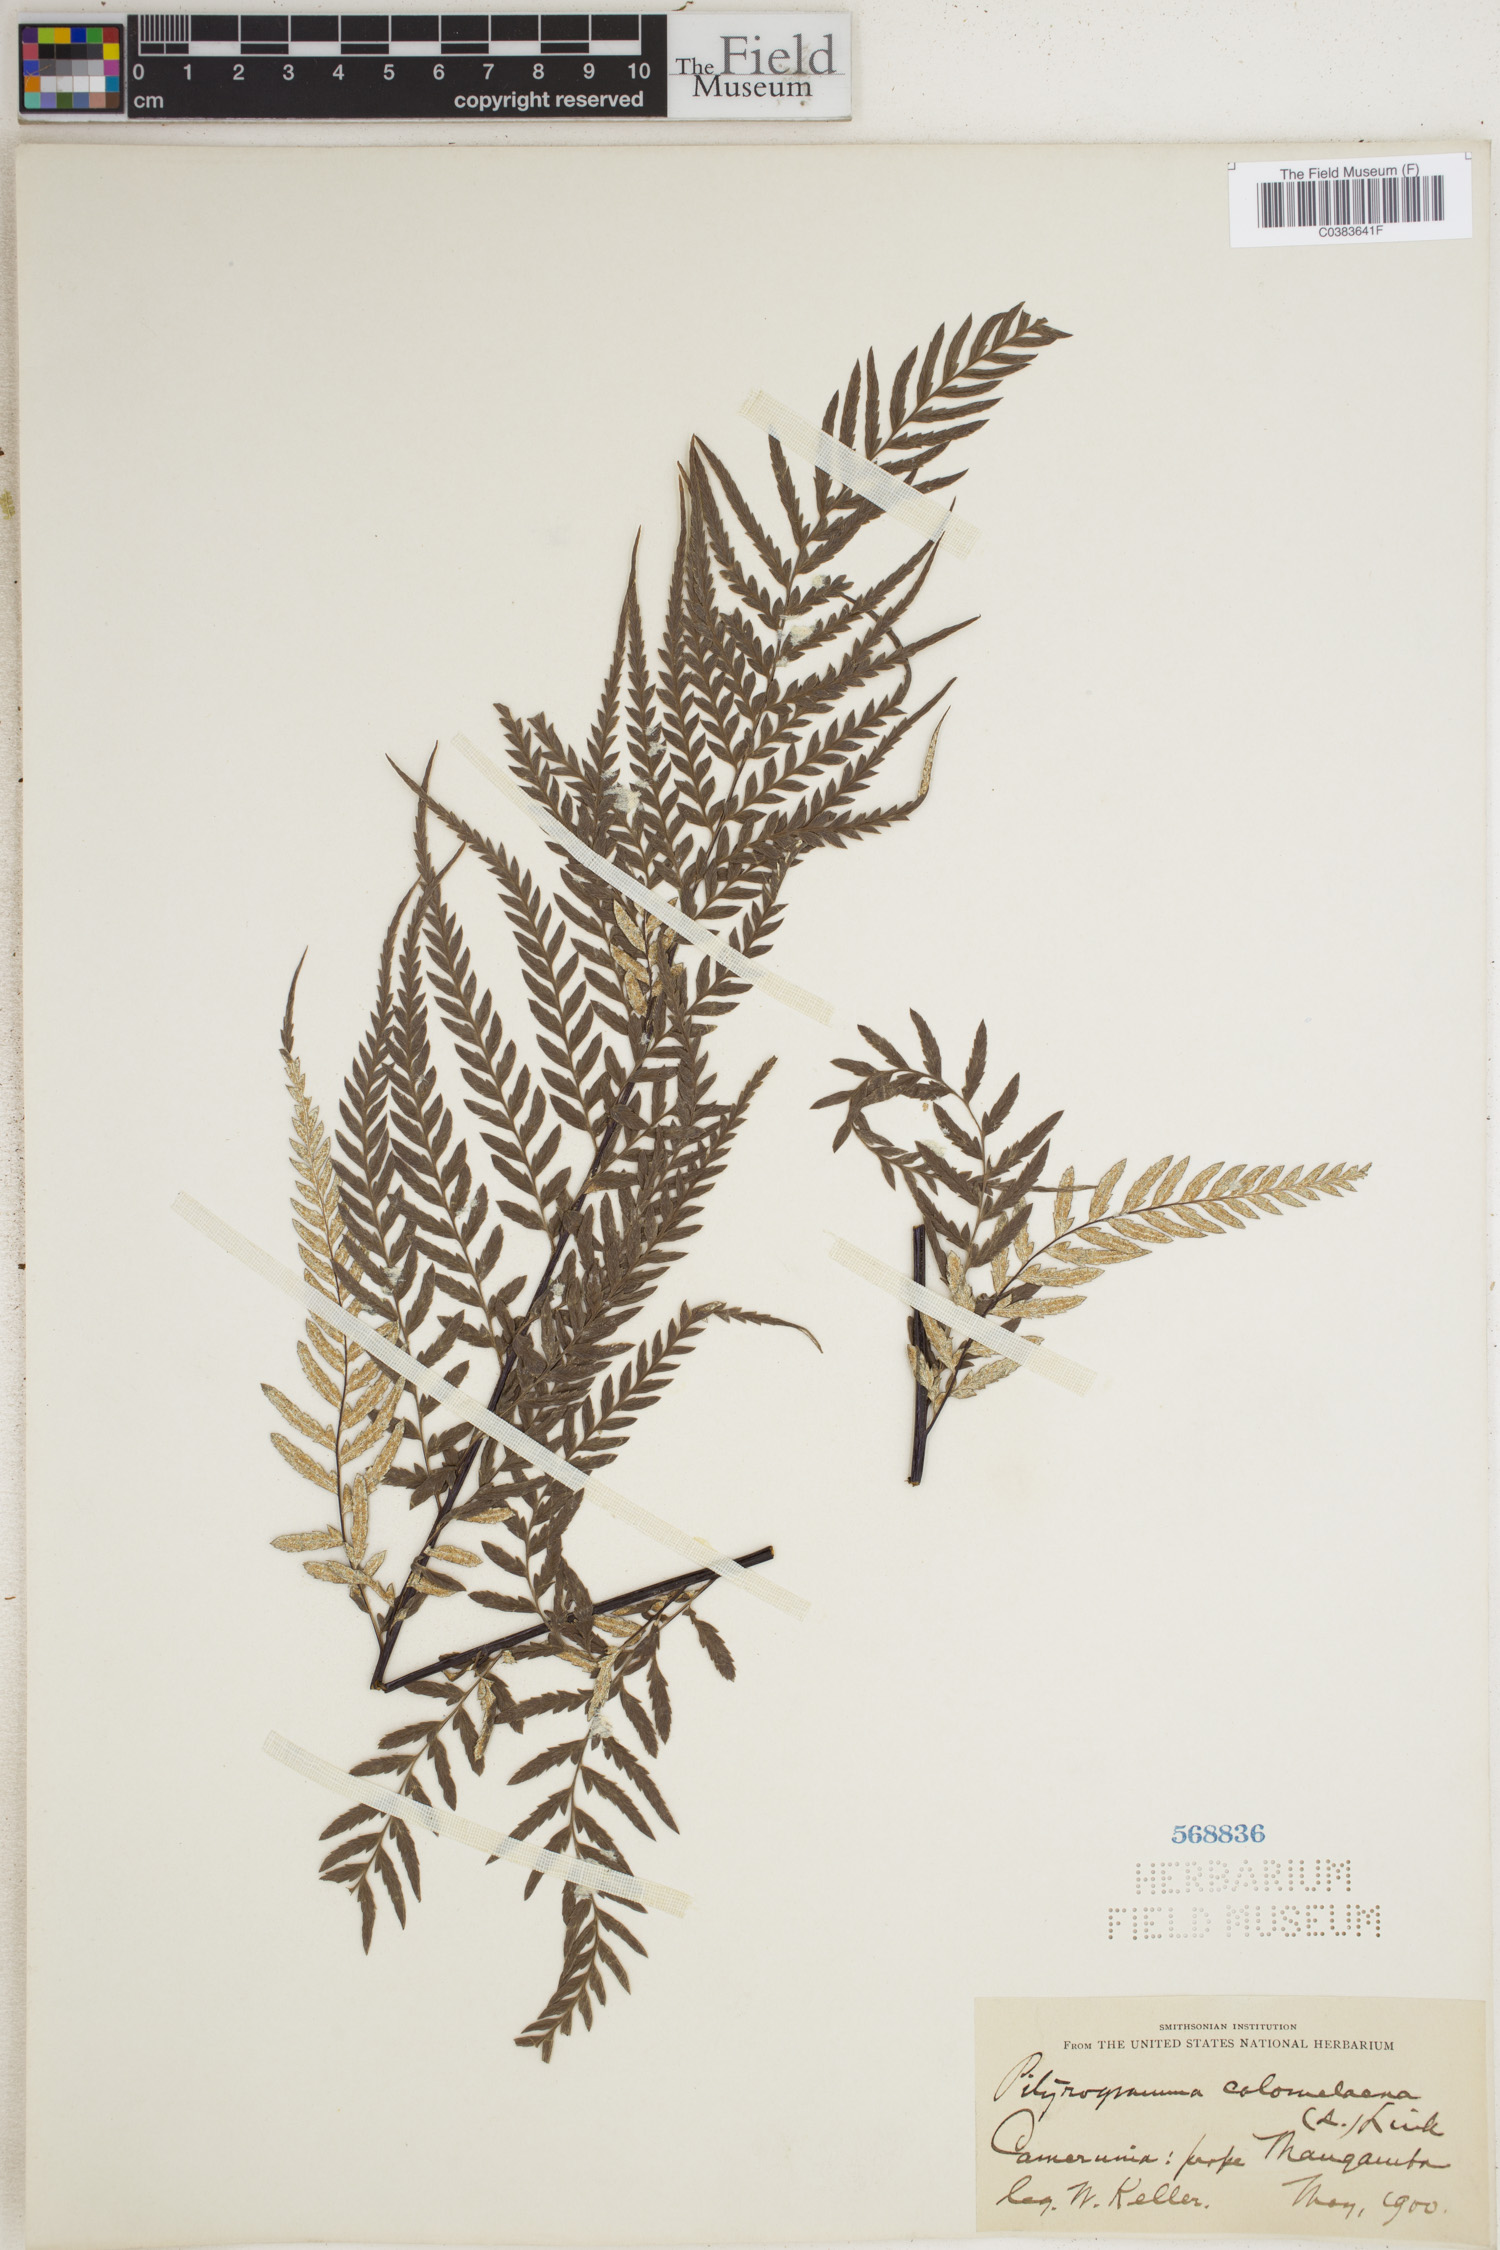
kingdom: Plantae
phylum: Tracheophyta
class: Polypodiopsida
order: Polypodiales
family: Pteridaceae
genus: Pityrogramma
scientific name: Pityrogramma calomelanos
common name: Dixie silverback fern
